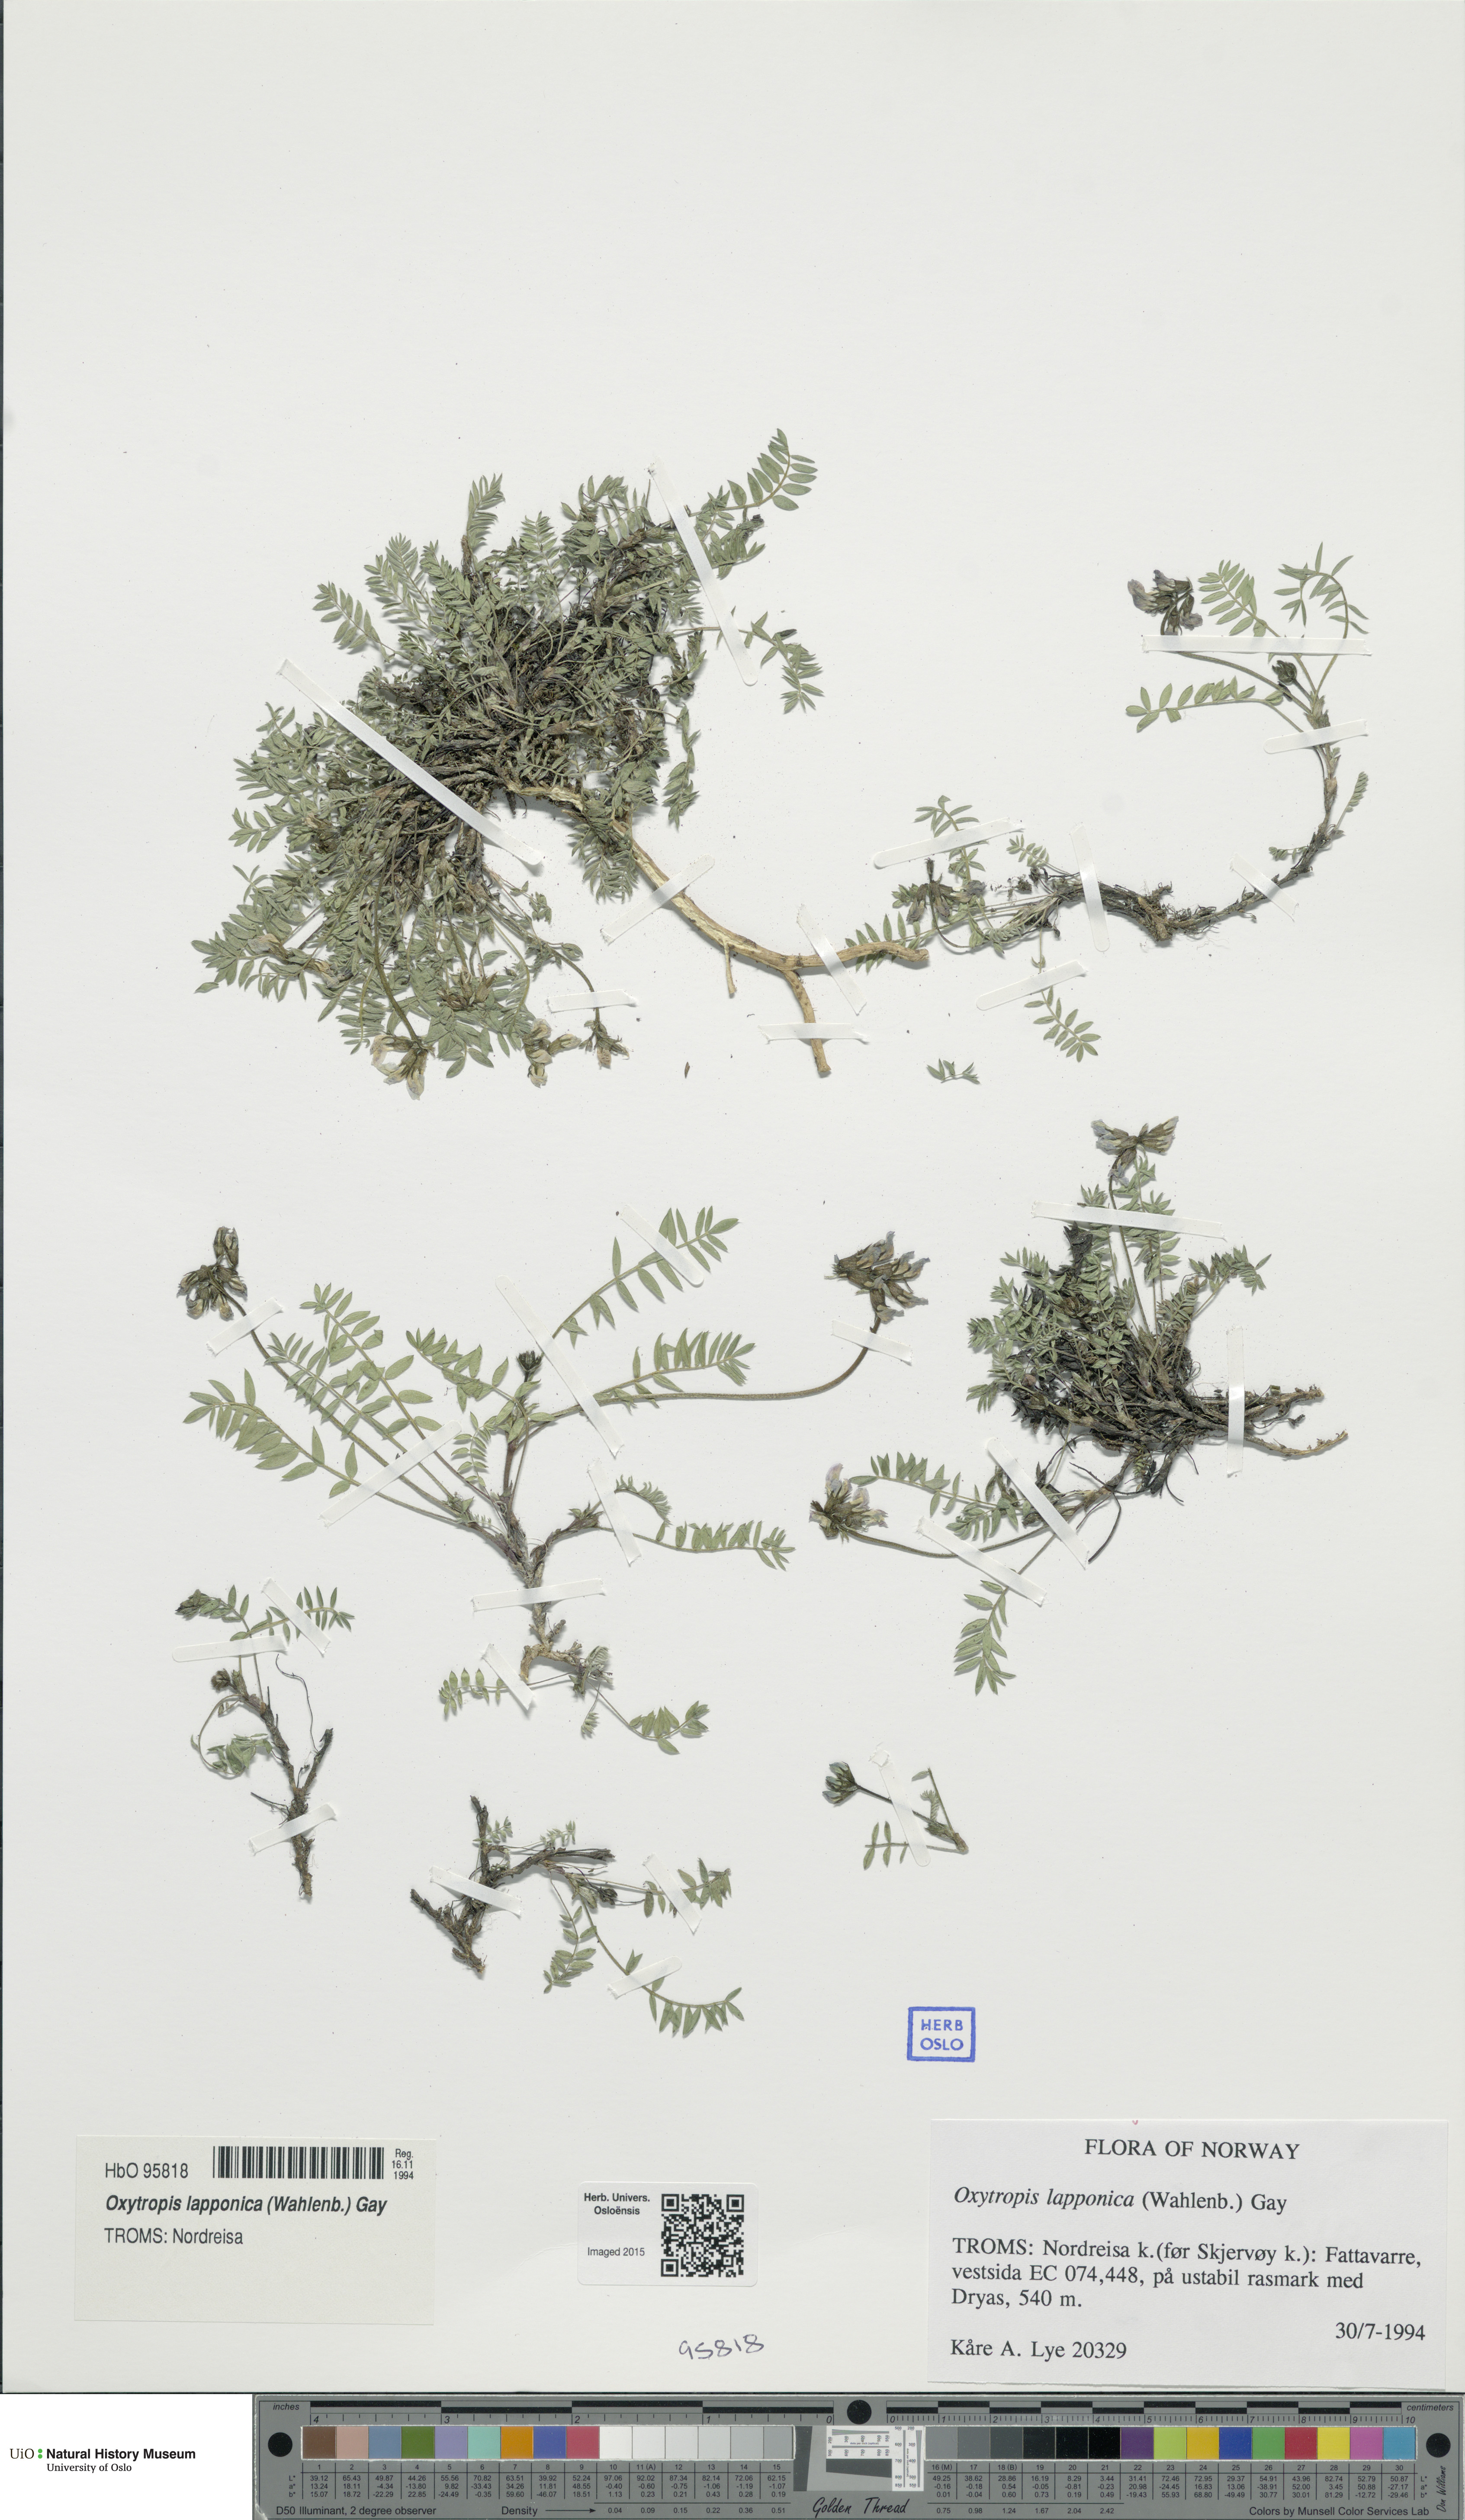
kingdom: Plantae
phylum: Tracheophyta
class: Magnoliopsida
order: Fabales
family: Fabaceae
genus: Oxytropis
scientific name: Oxytropis lapponica
